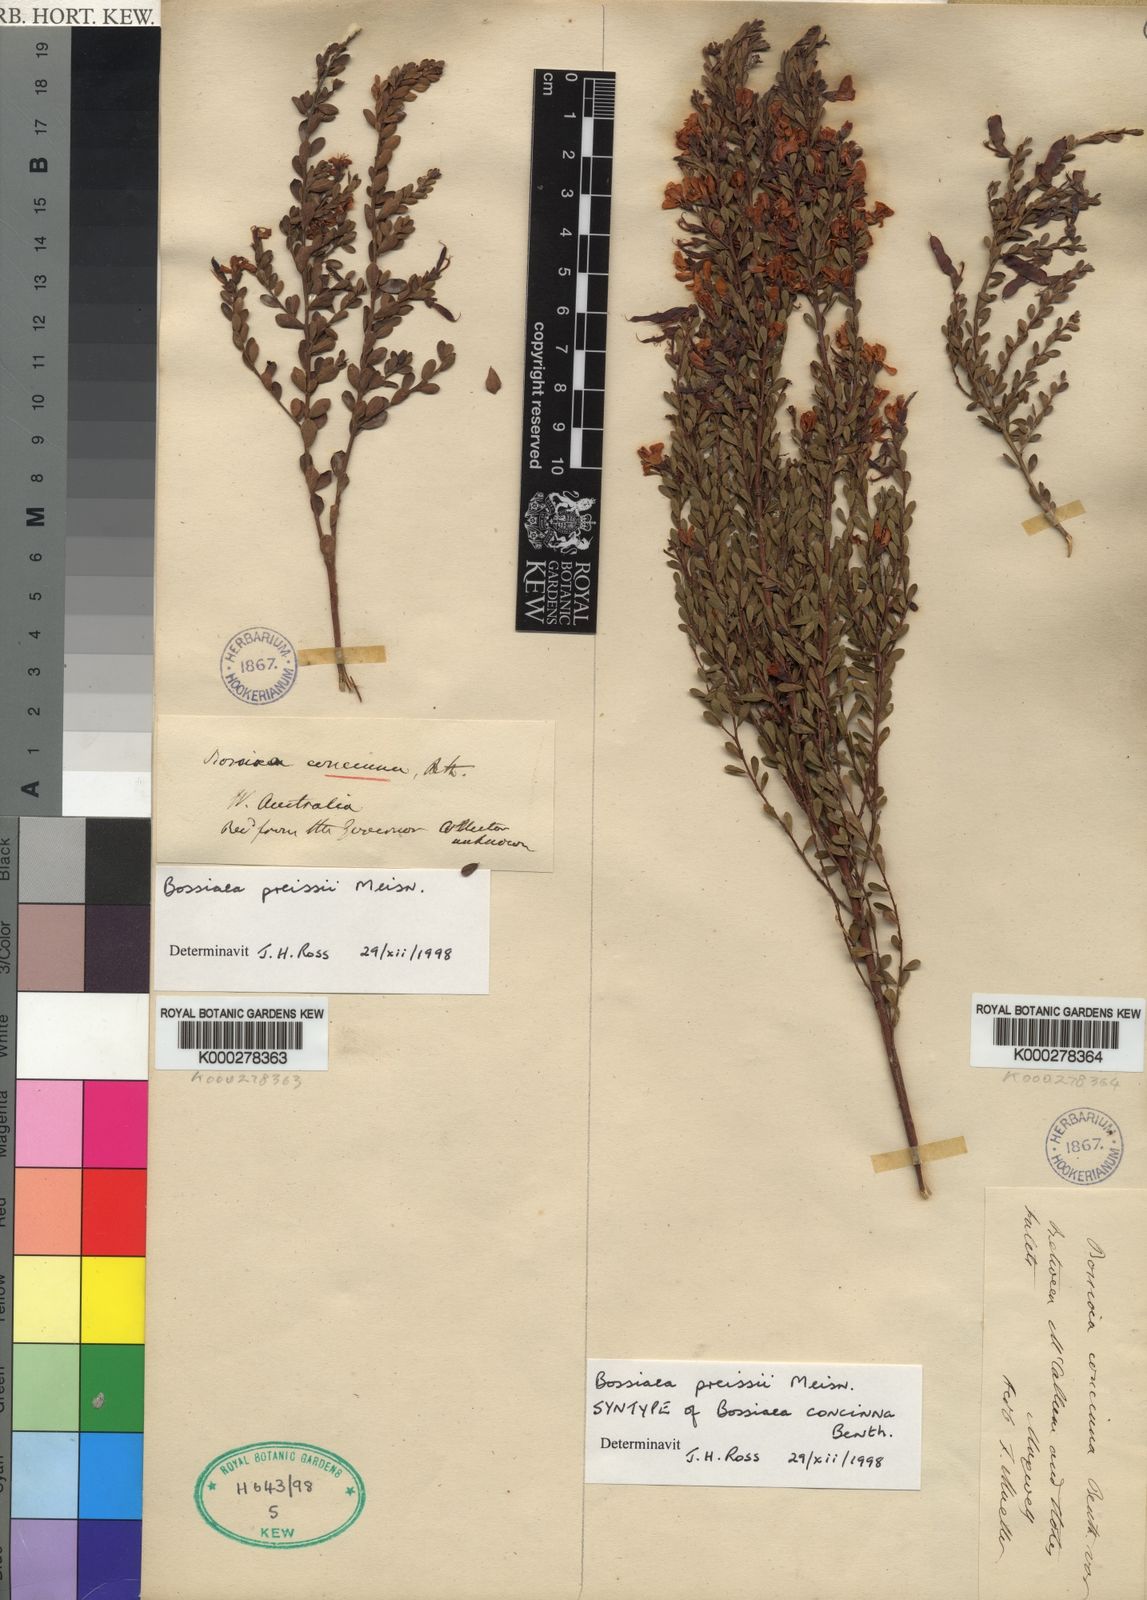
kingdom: Plantae
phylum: Tracheophyta
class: Magnoliopsida
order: Fabales
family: Fabaceae
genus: Bossiaea
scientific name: Bossiaea preissii
